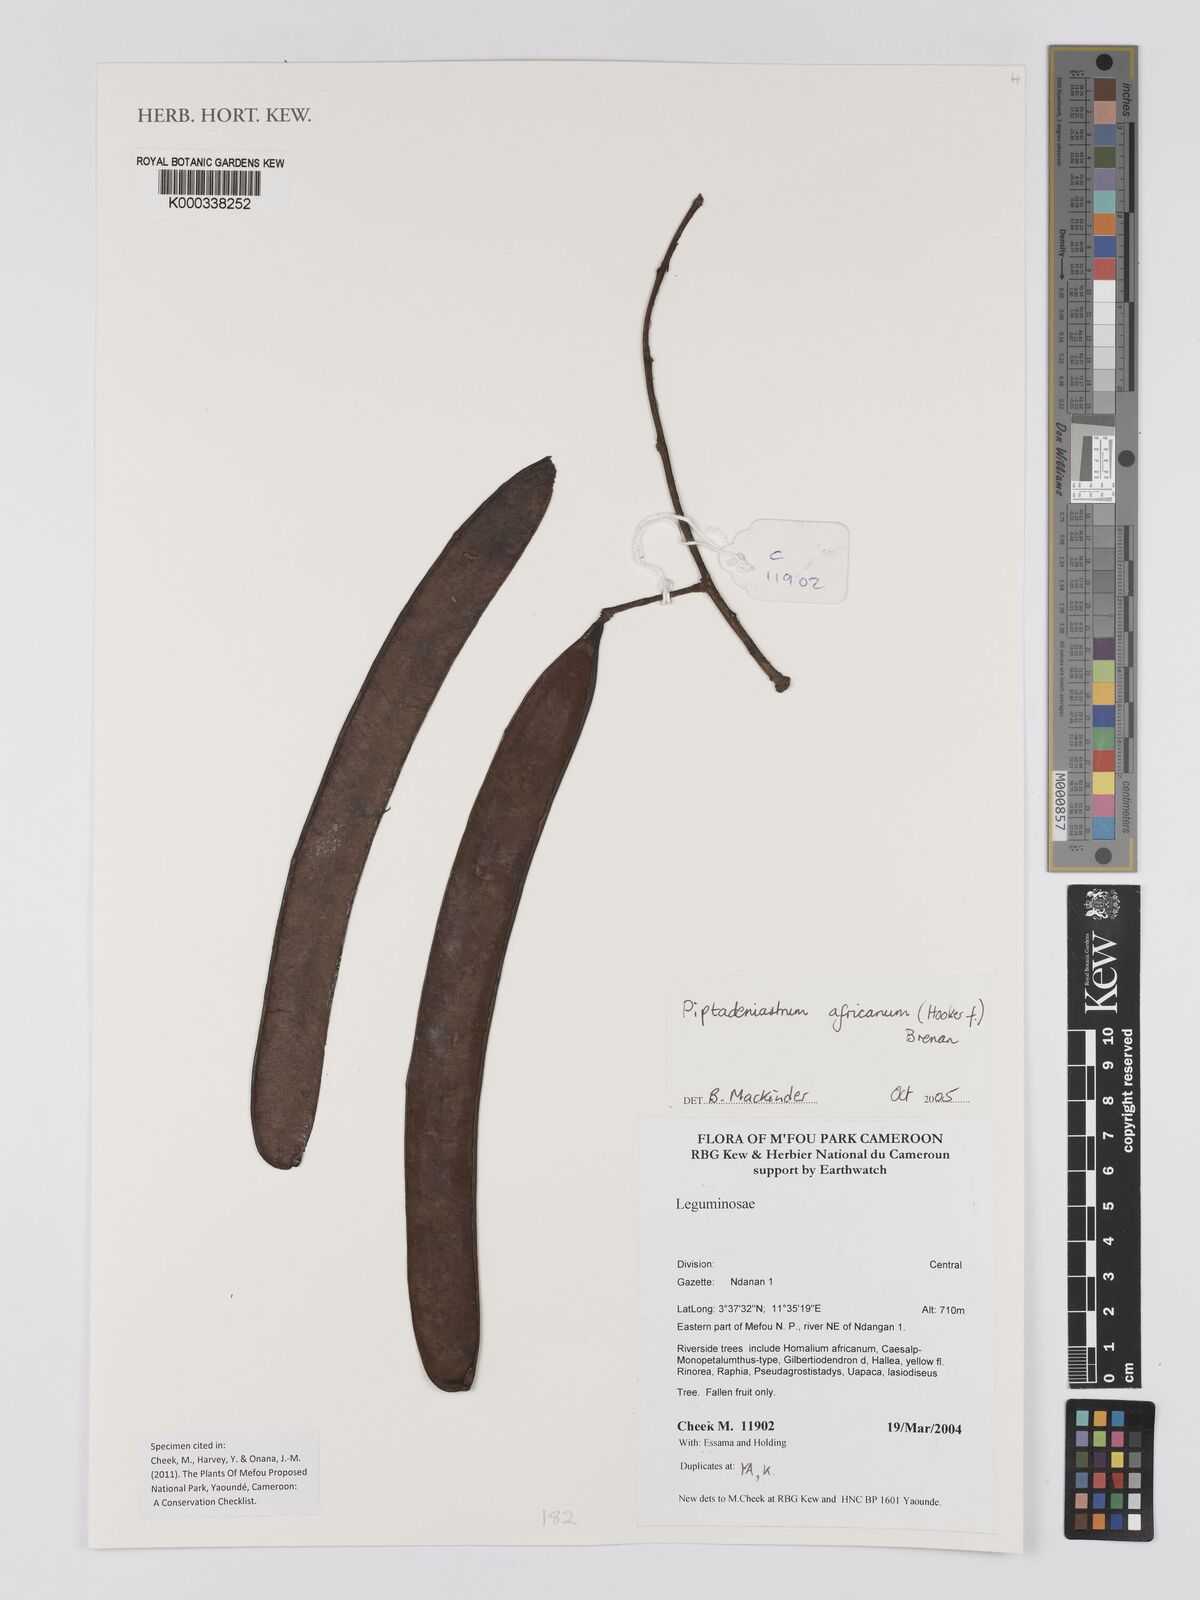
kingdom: Plantae
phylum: Tracheophyta
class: Magnoliopsida
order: Fabales
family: Fabaceae
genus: Piptadeniastrum
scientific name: Piptadeniastrum africanum
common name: African greenheart
